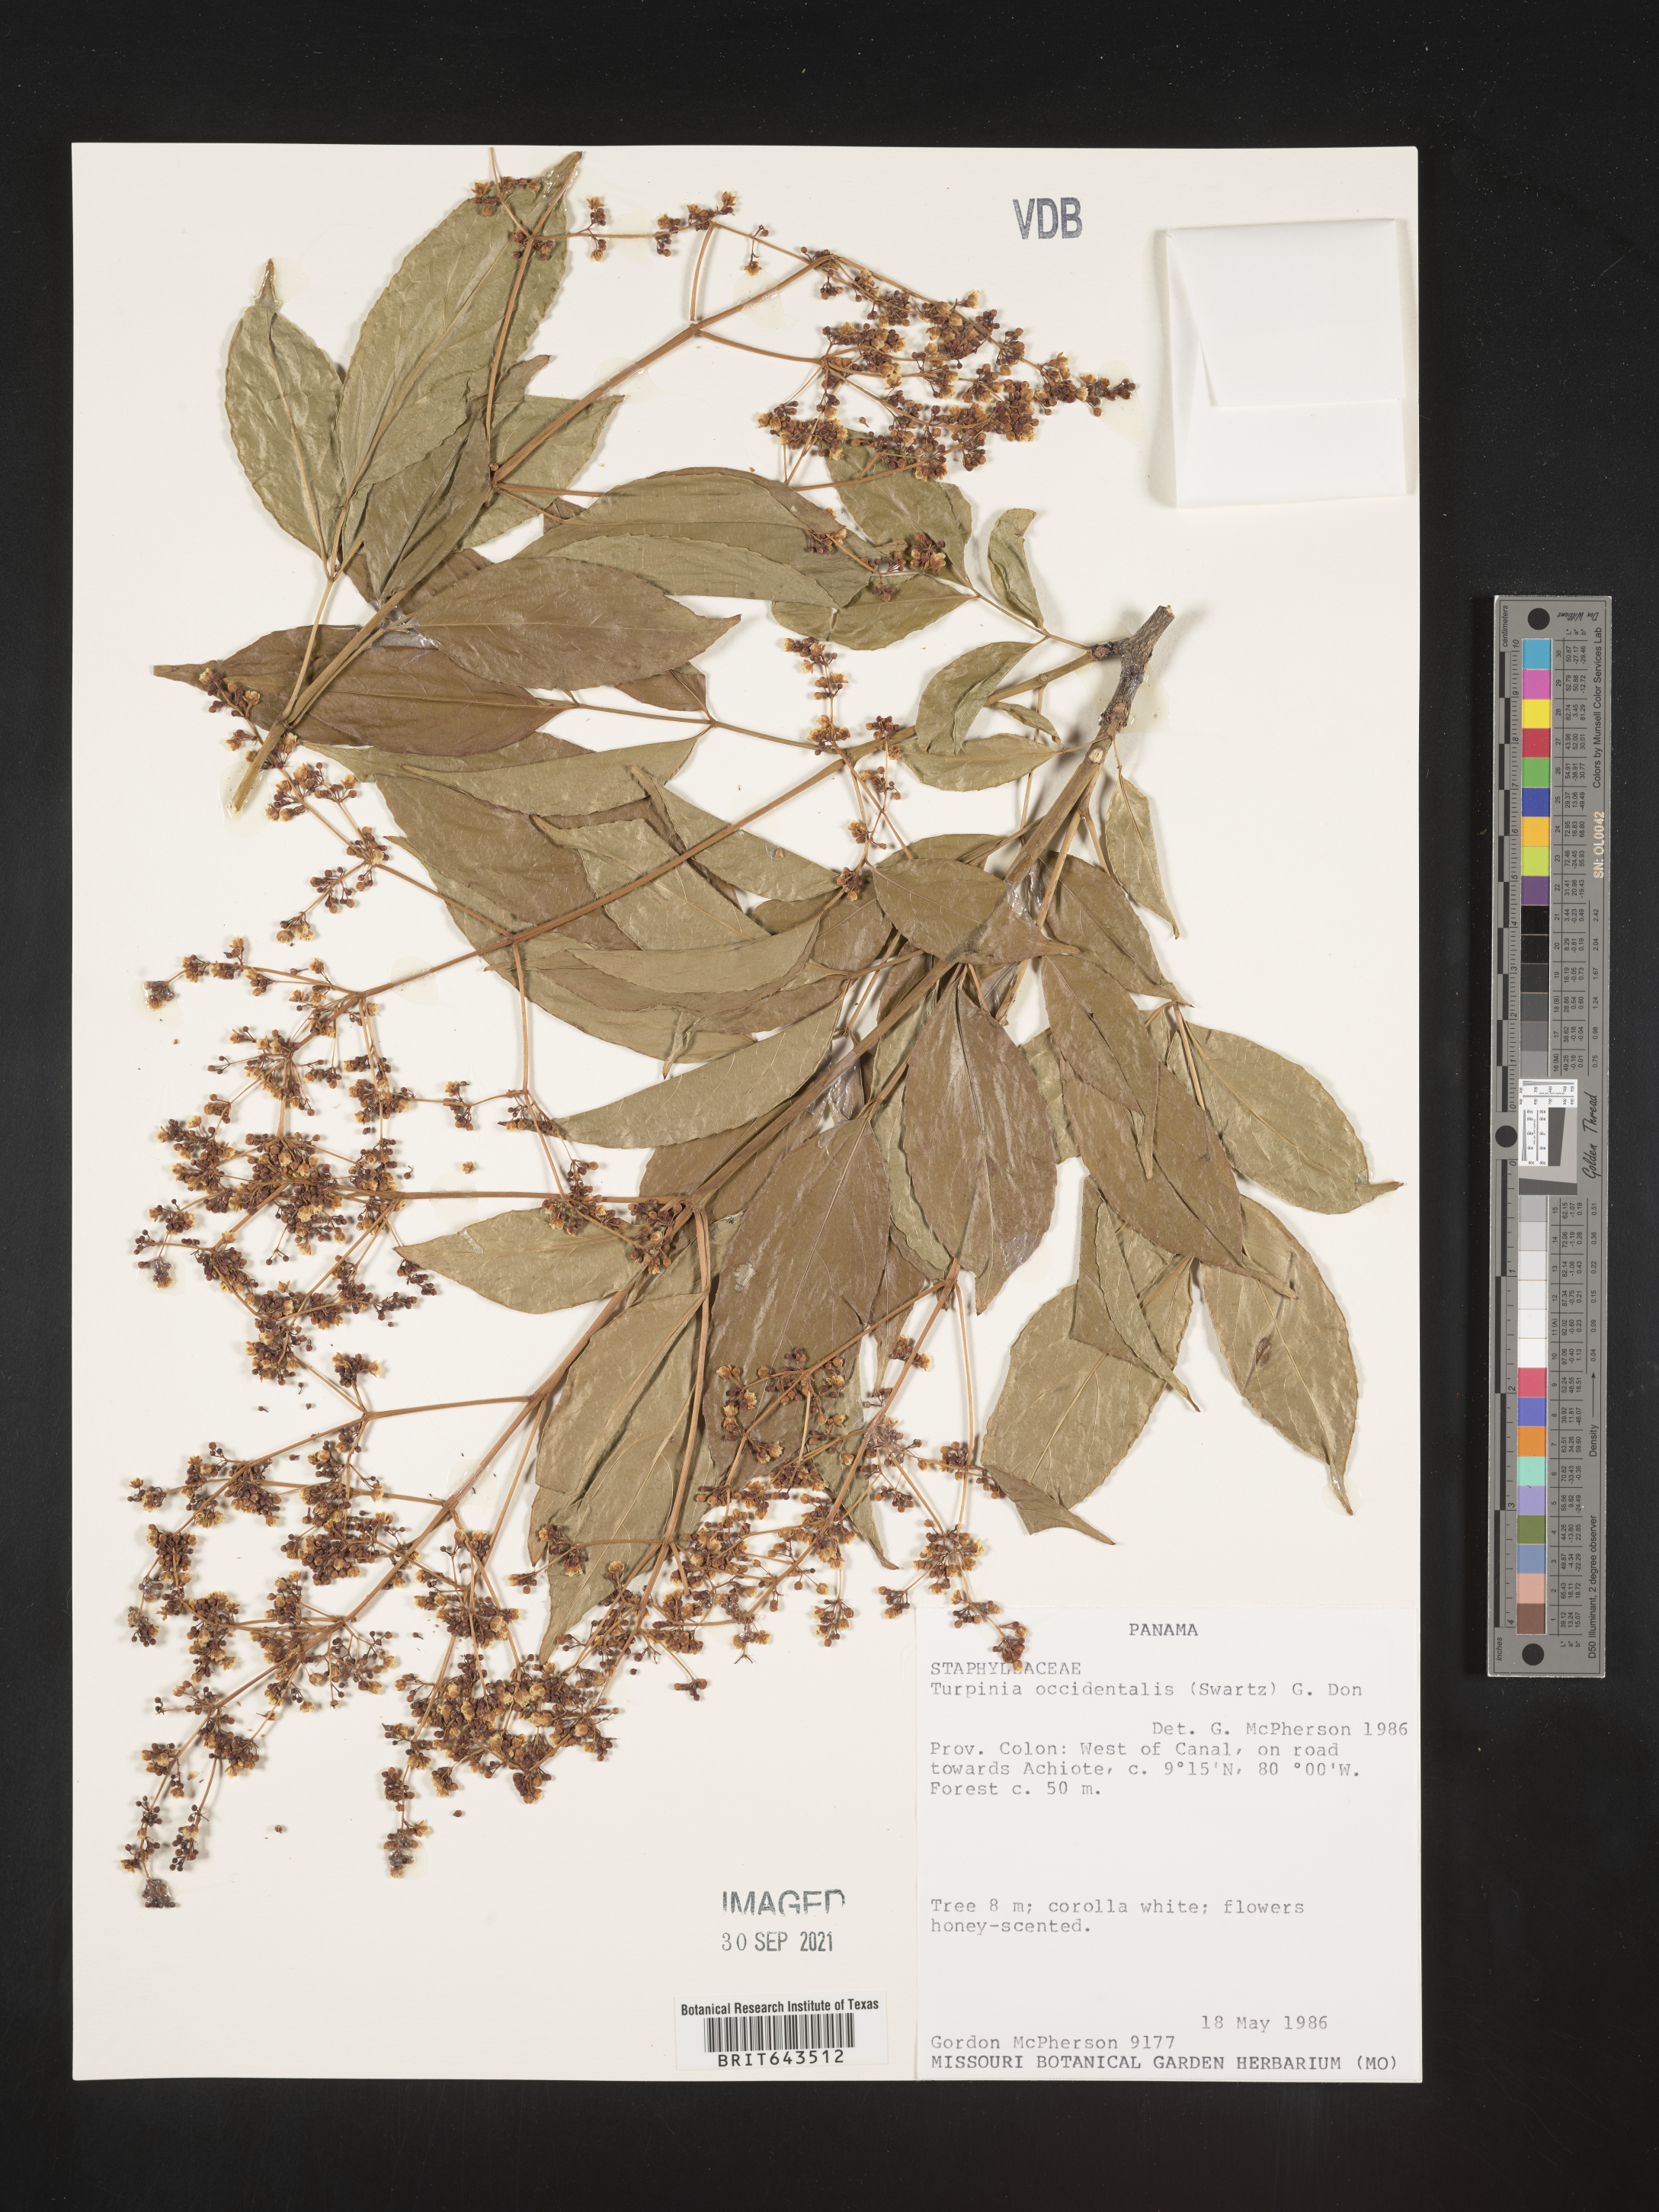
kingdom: Plantae
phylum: Tracheophyta
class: Magnoliopsida
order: Crossosomatales
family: Staphyleaceae
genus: Turpinia
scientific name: Turpinia
